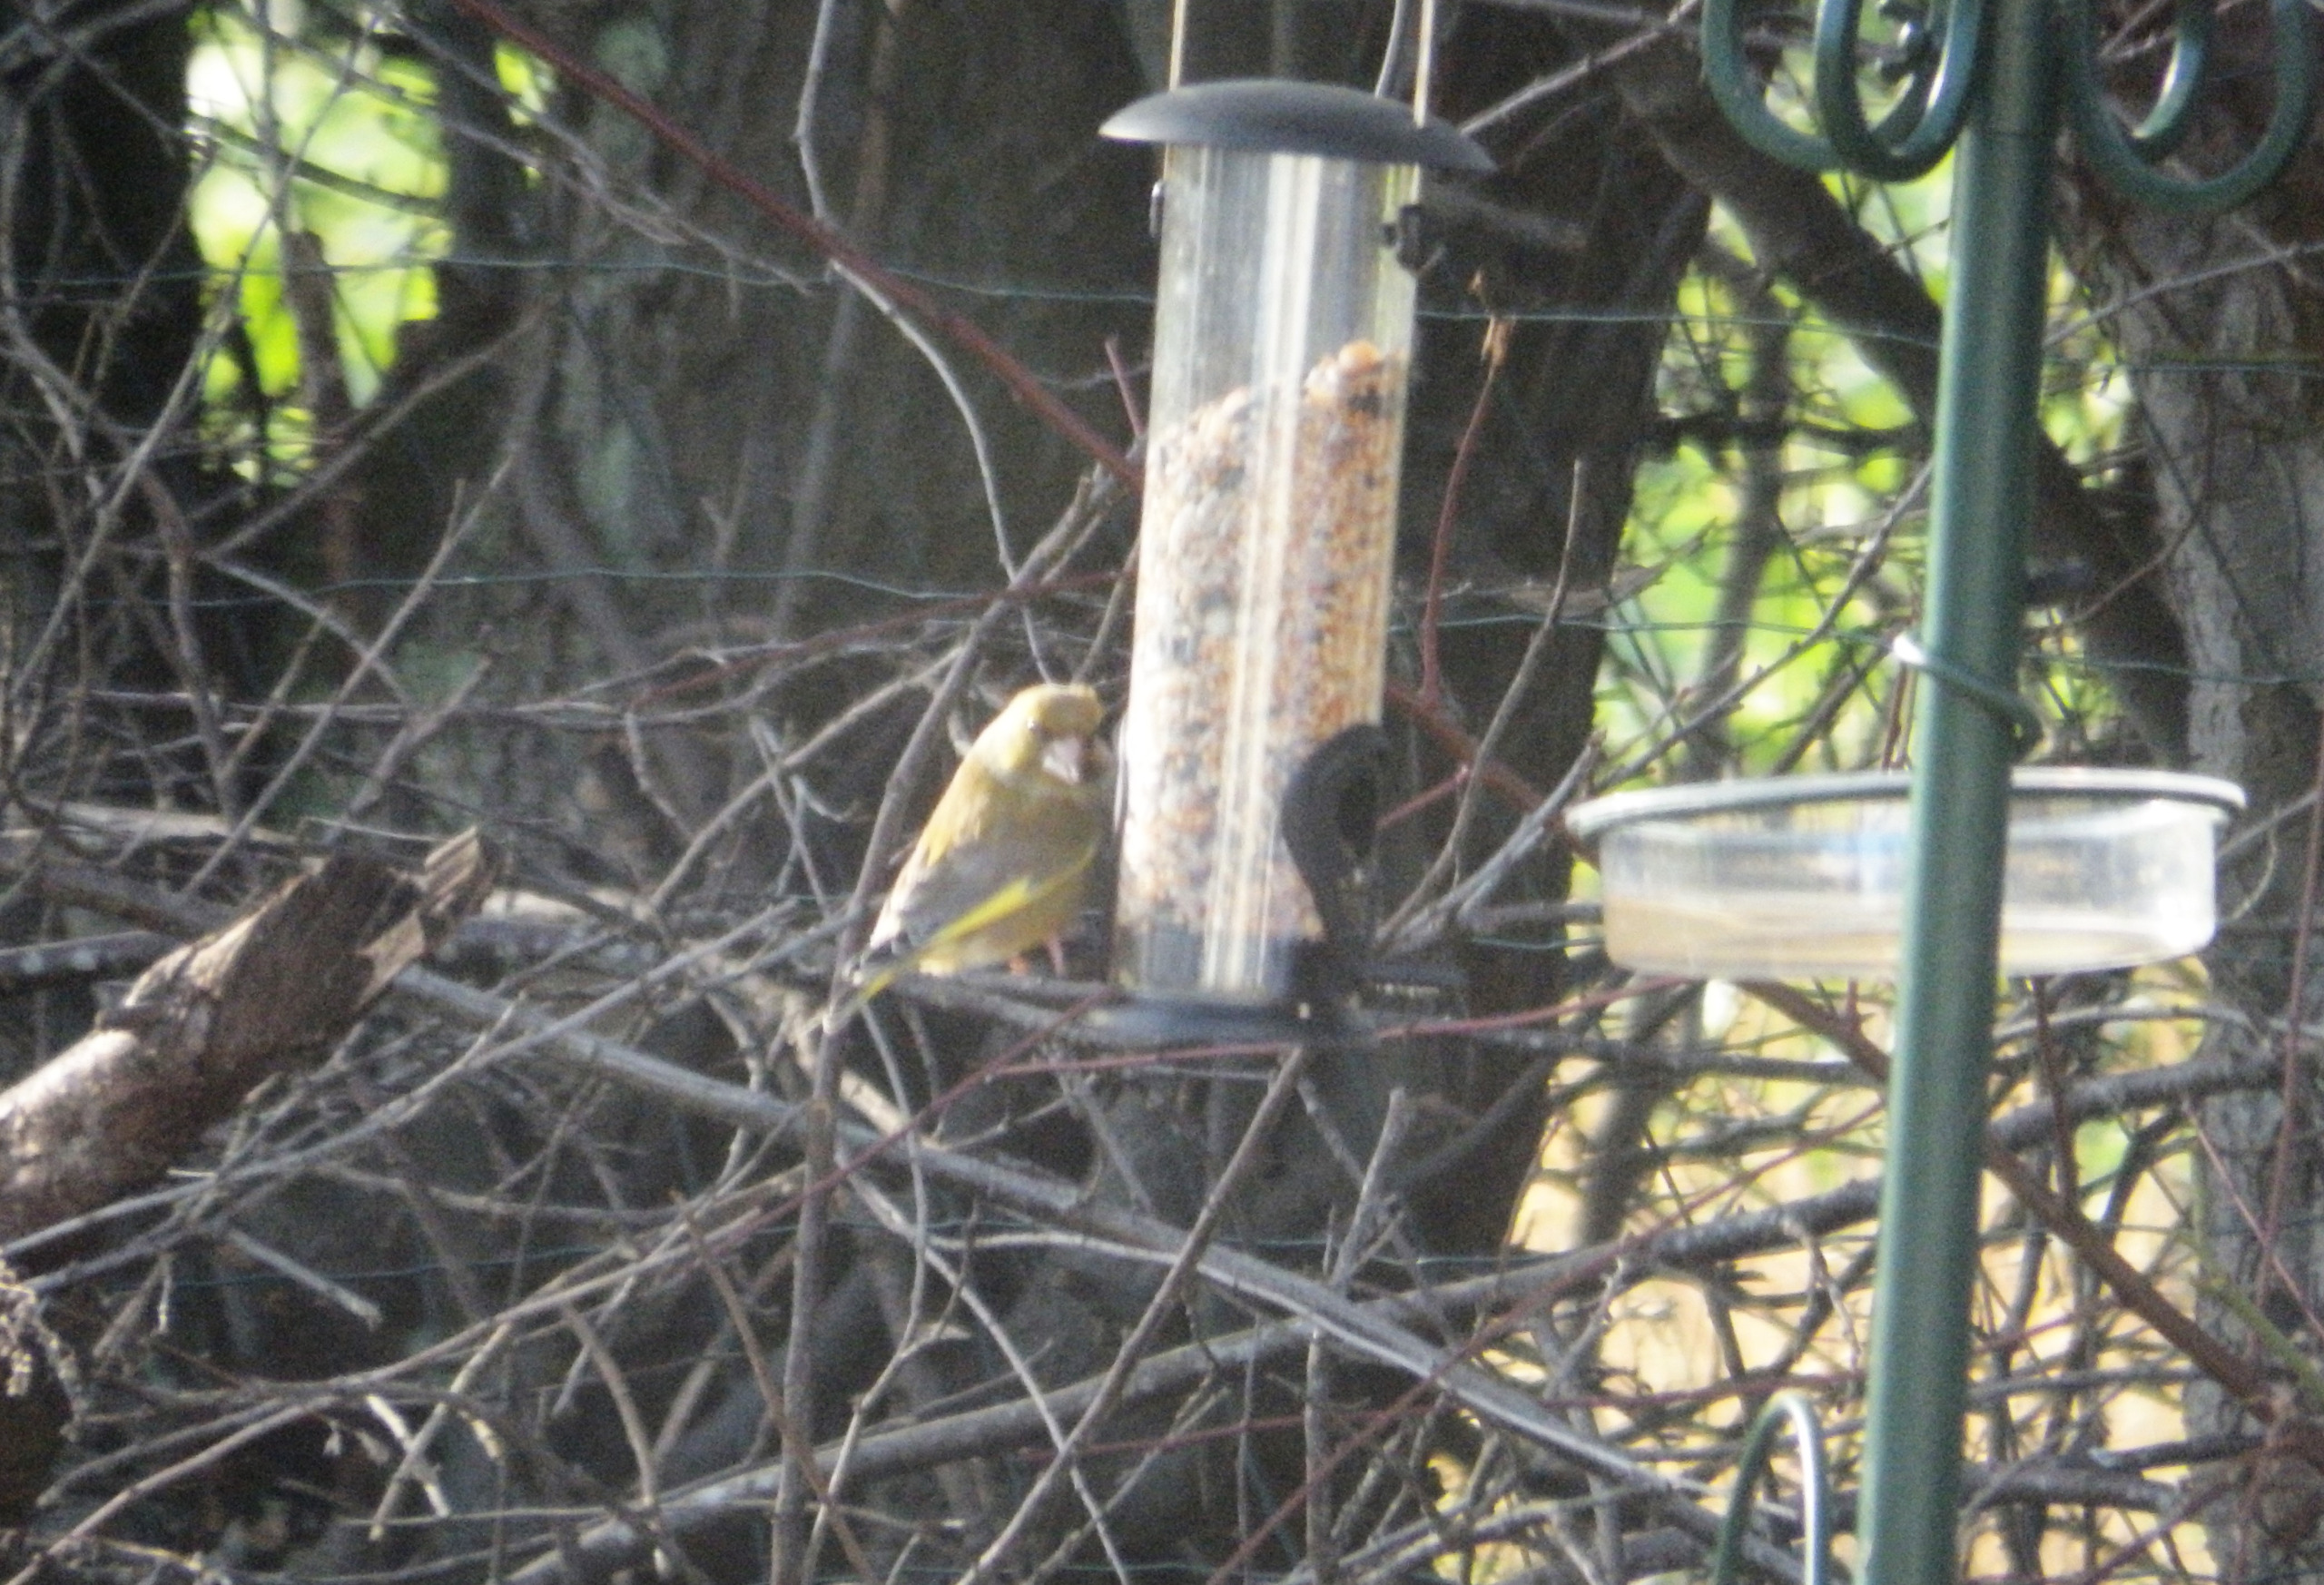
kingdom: Plantae
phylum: Tracheophyta
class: Liliopsida
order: Poales
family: Poaceae
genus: Chloris
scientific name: Chloris chloris
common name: Grønirisk
